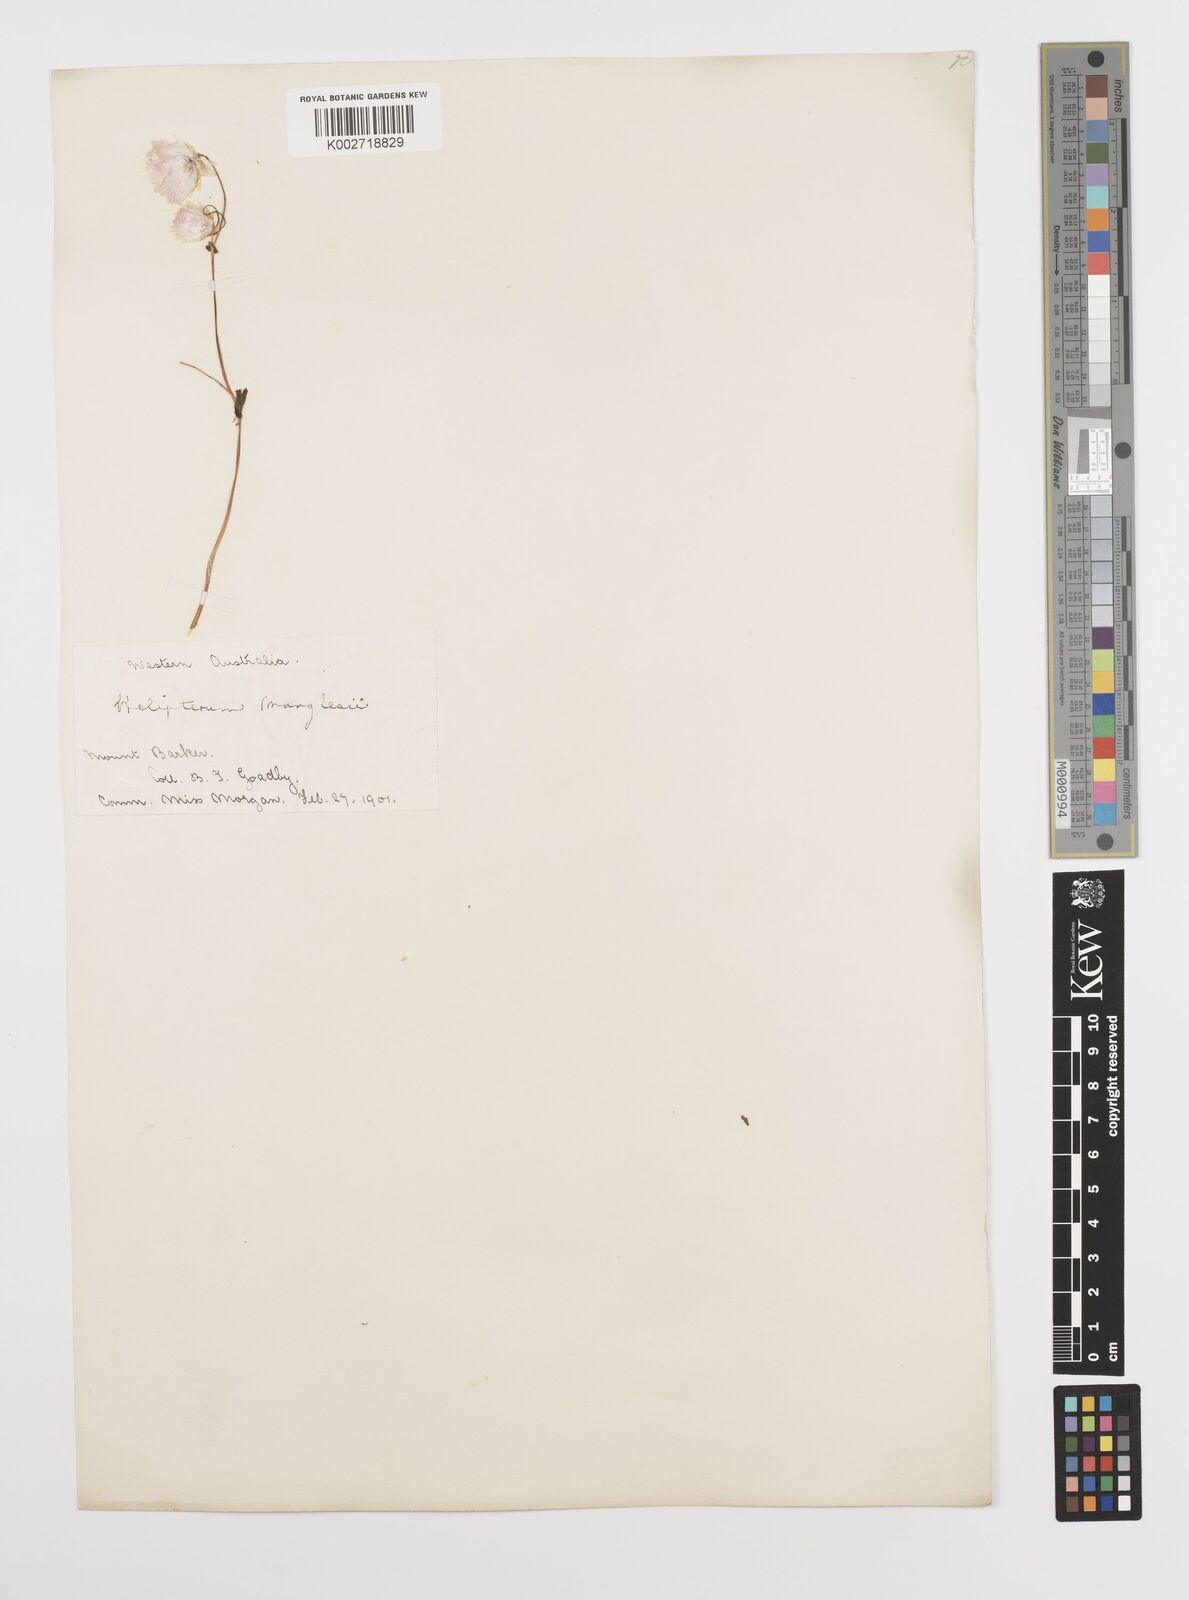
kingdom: Plantae
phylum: Tracheophyta
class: Magnoliopsida
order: Asterales
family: Asteraceae
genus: Rhodanthe
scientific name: Rhodanthe manglesii
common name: Pink sunray
